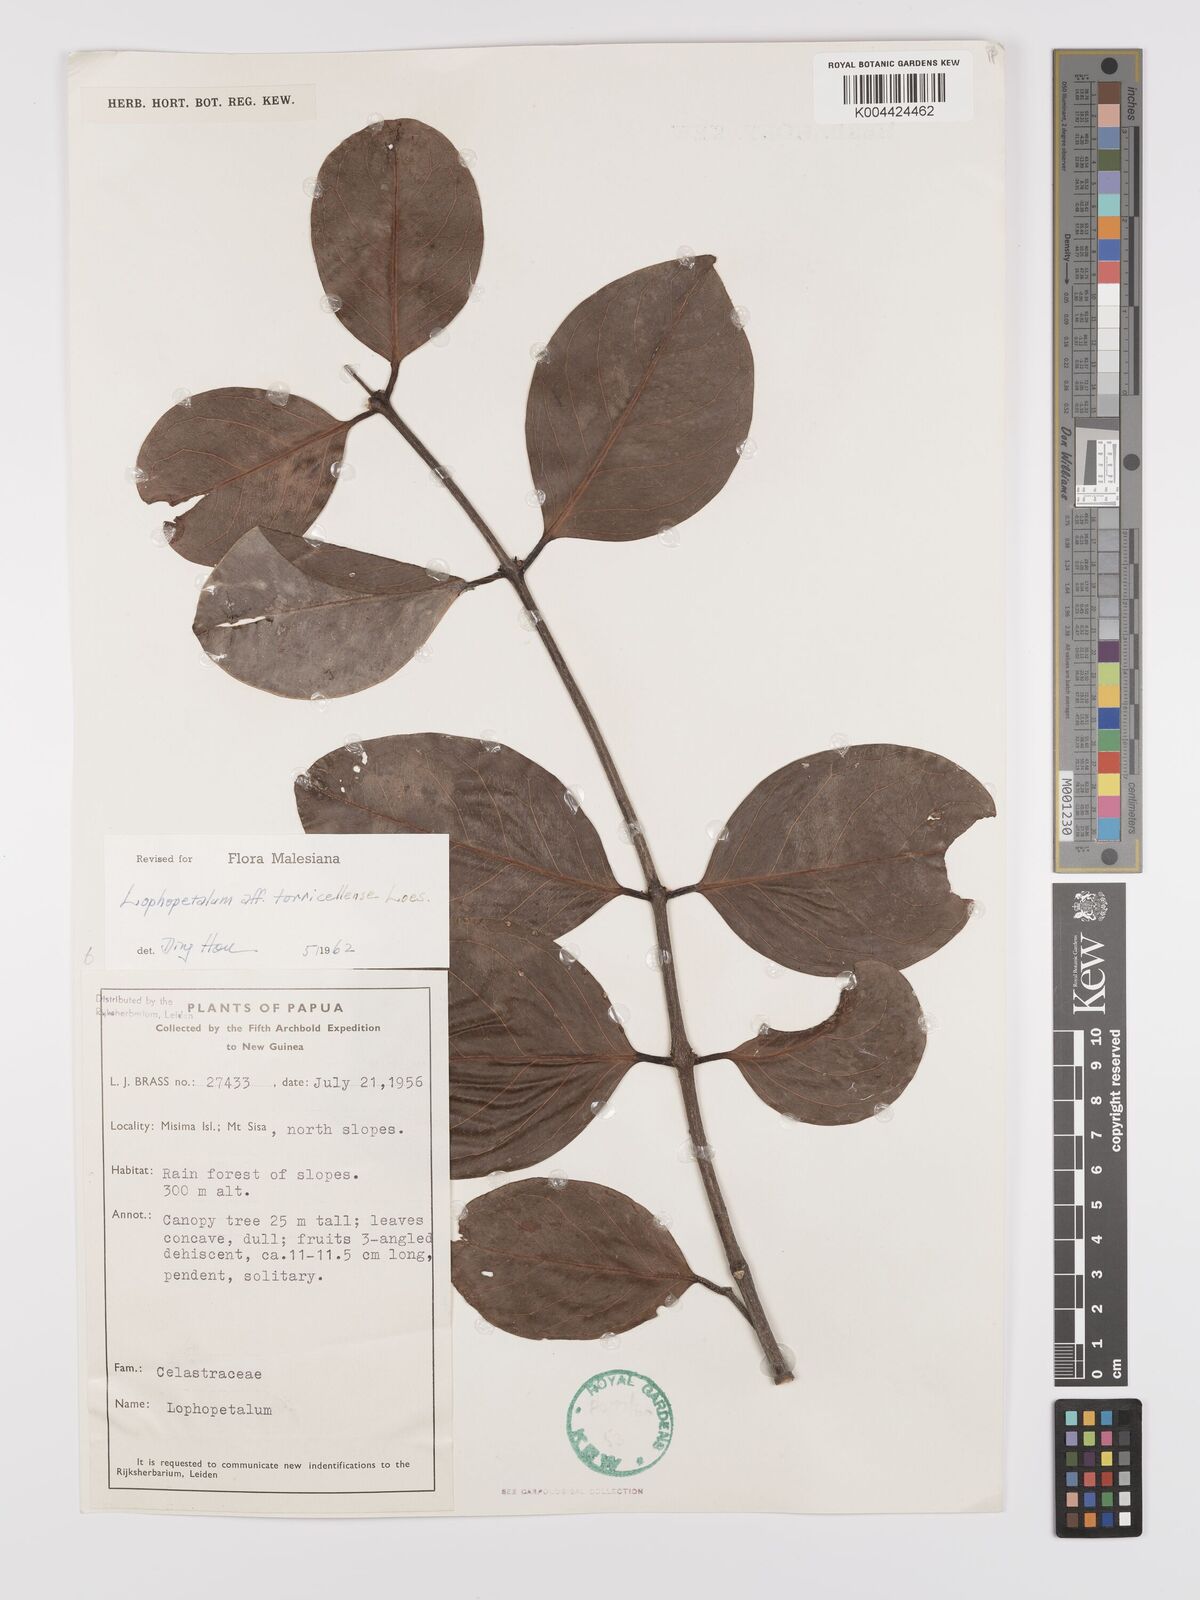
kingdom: Plantae
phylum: Tracheophyta
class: Magnoliopsida
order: Celastrales
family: Celastraceae
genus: Lophopetalum
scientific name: Lophopetalum torricellense
